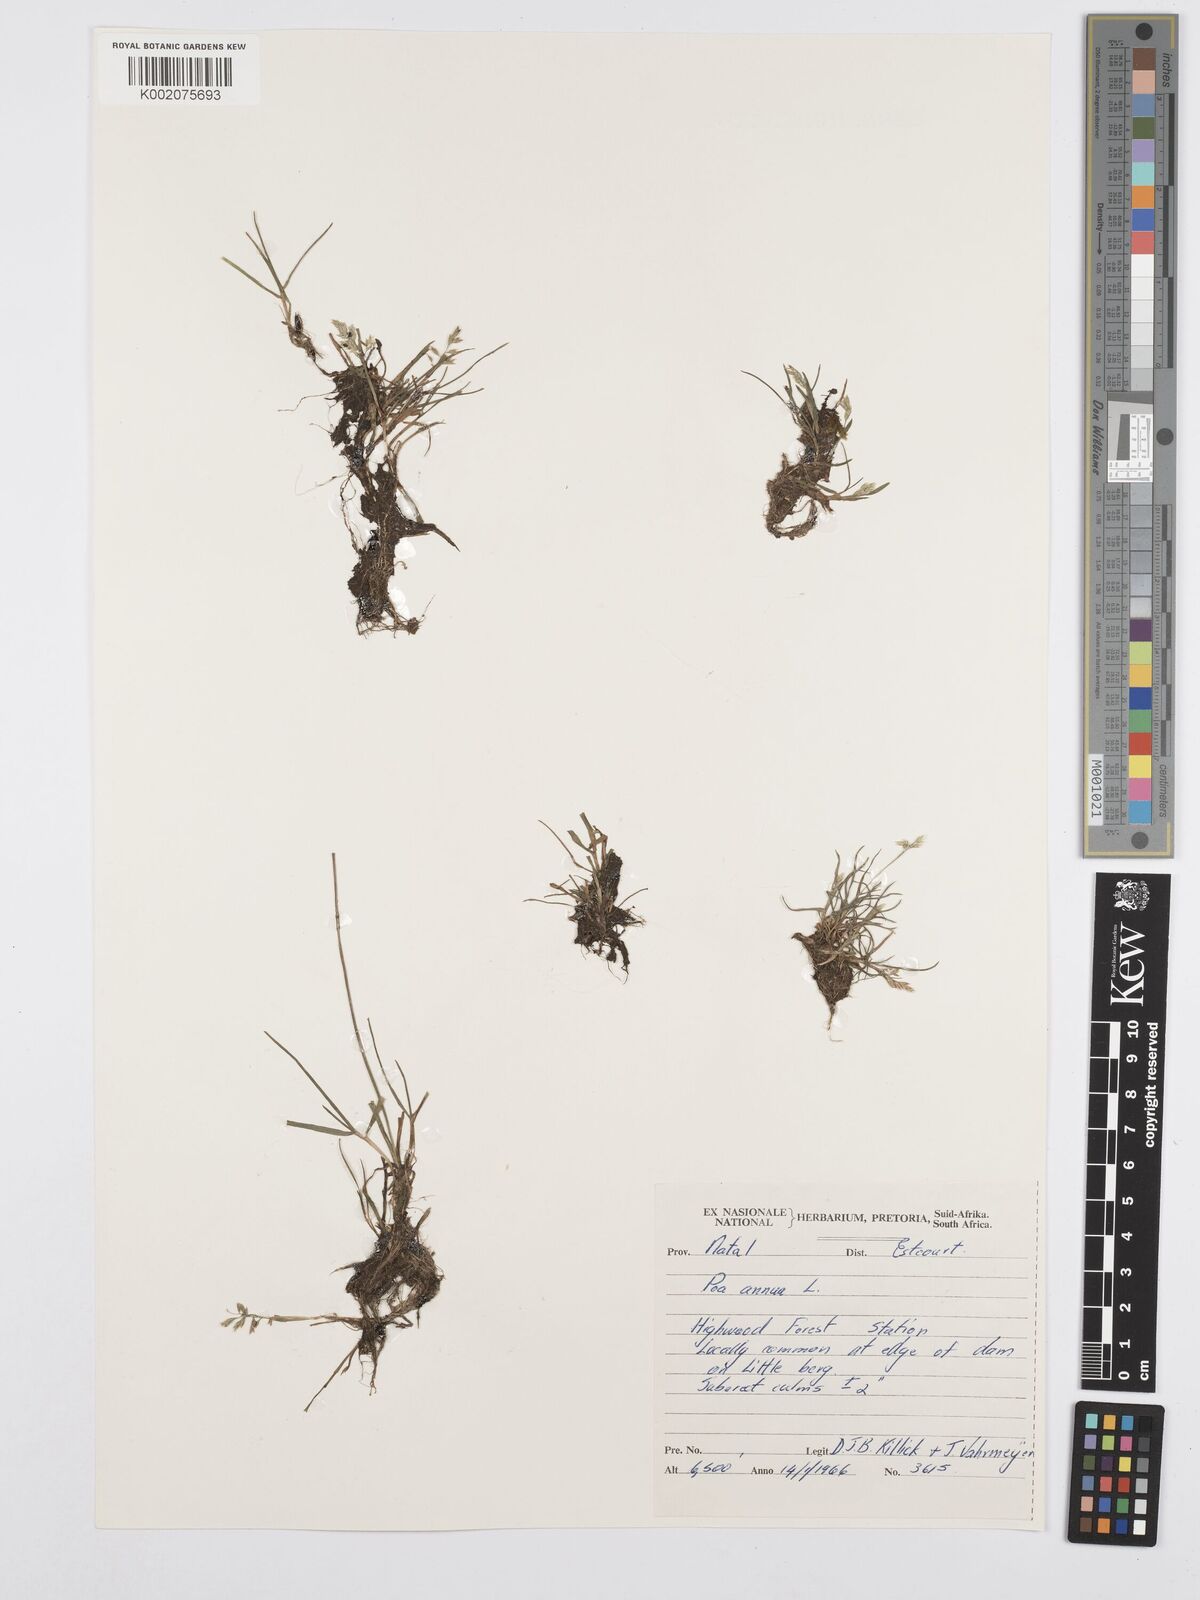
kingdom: Plantae
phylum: Tracheophyta
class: Liliopsida
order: Poales
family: Poaceae
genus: Poa
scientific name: Poa annua
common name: Annual bluegrass
